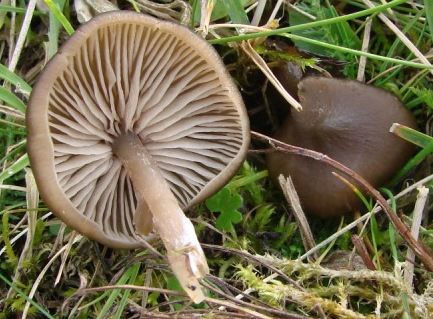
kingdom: Fungi
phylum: Basidiomycota
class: Agaricomycetes
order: Agaricales
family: Entolomataceae
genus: Entoloma
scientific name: Entoloma sericeum
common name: silkeglinsende rødblad
